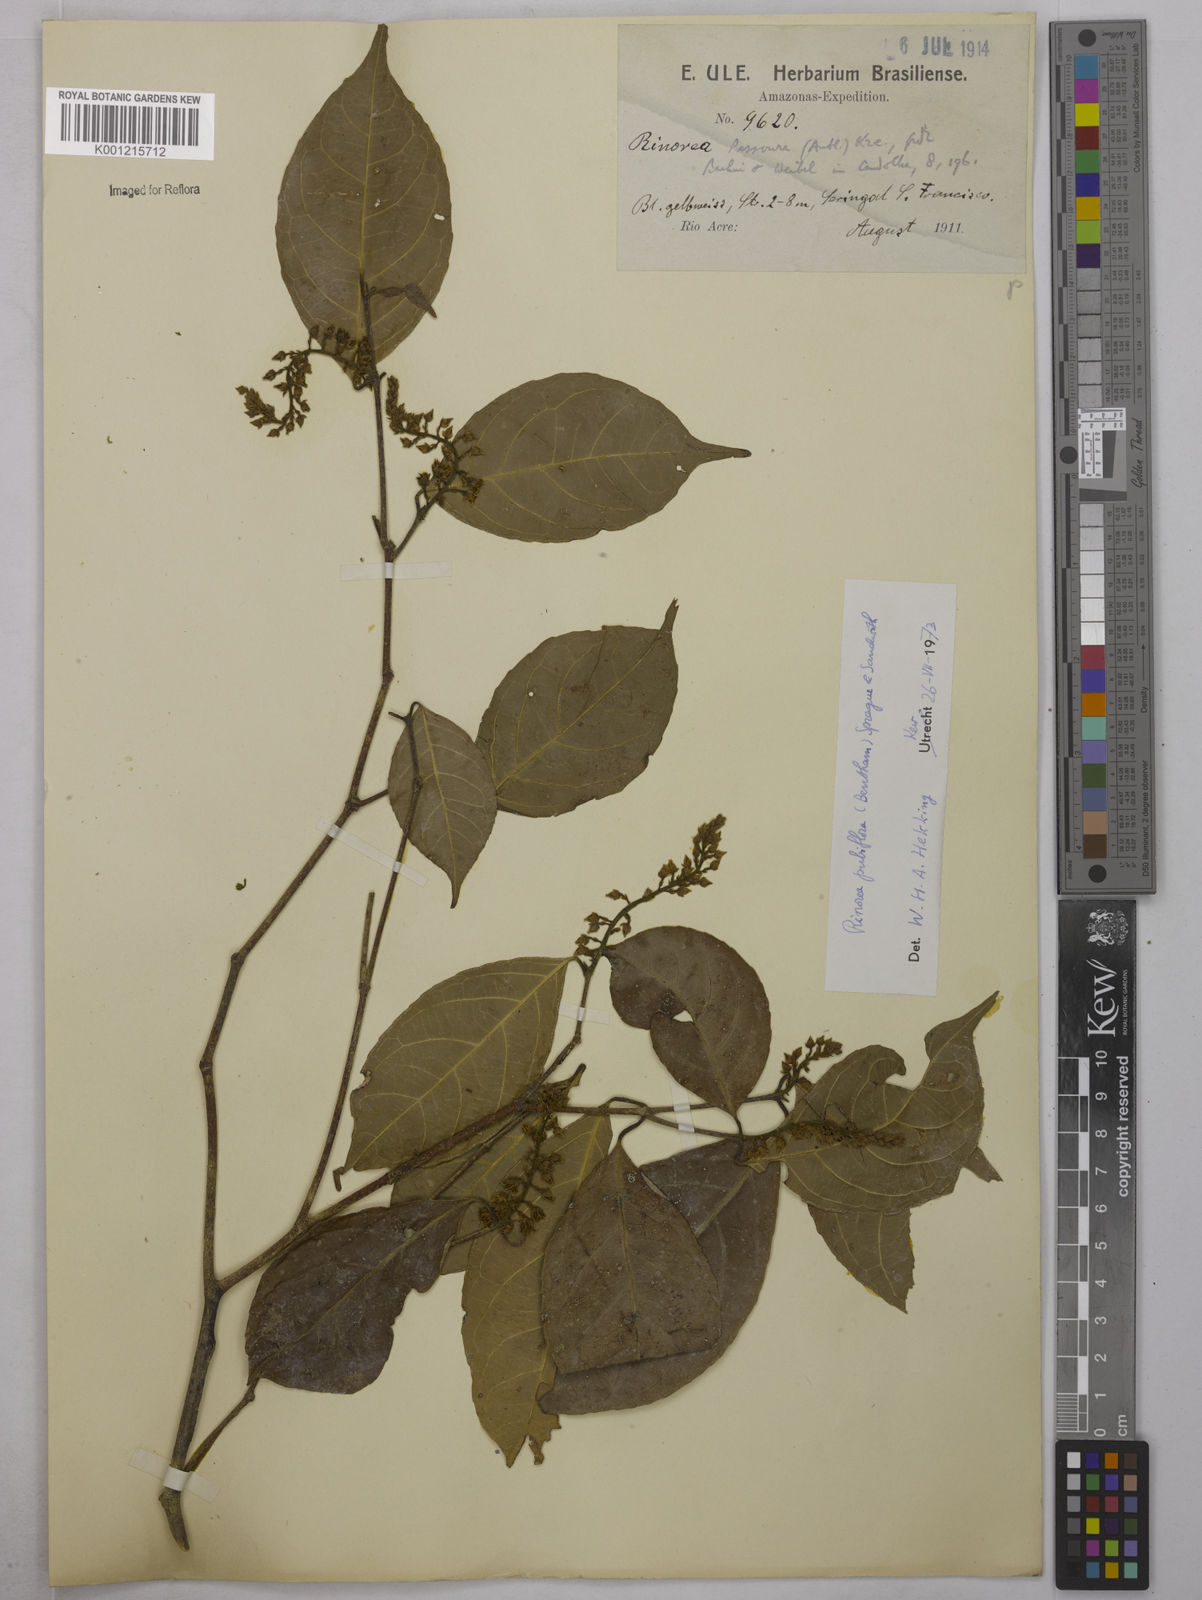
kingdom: Plantae
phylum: Tracheophyta
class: Magnoliopsida
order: Malpighiales
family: Violaceae
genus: Rinorea
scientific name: Rinorea pubiflora
